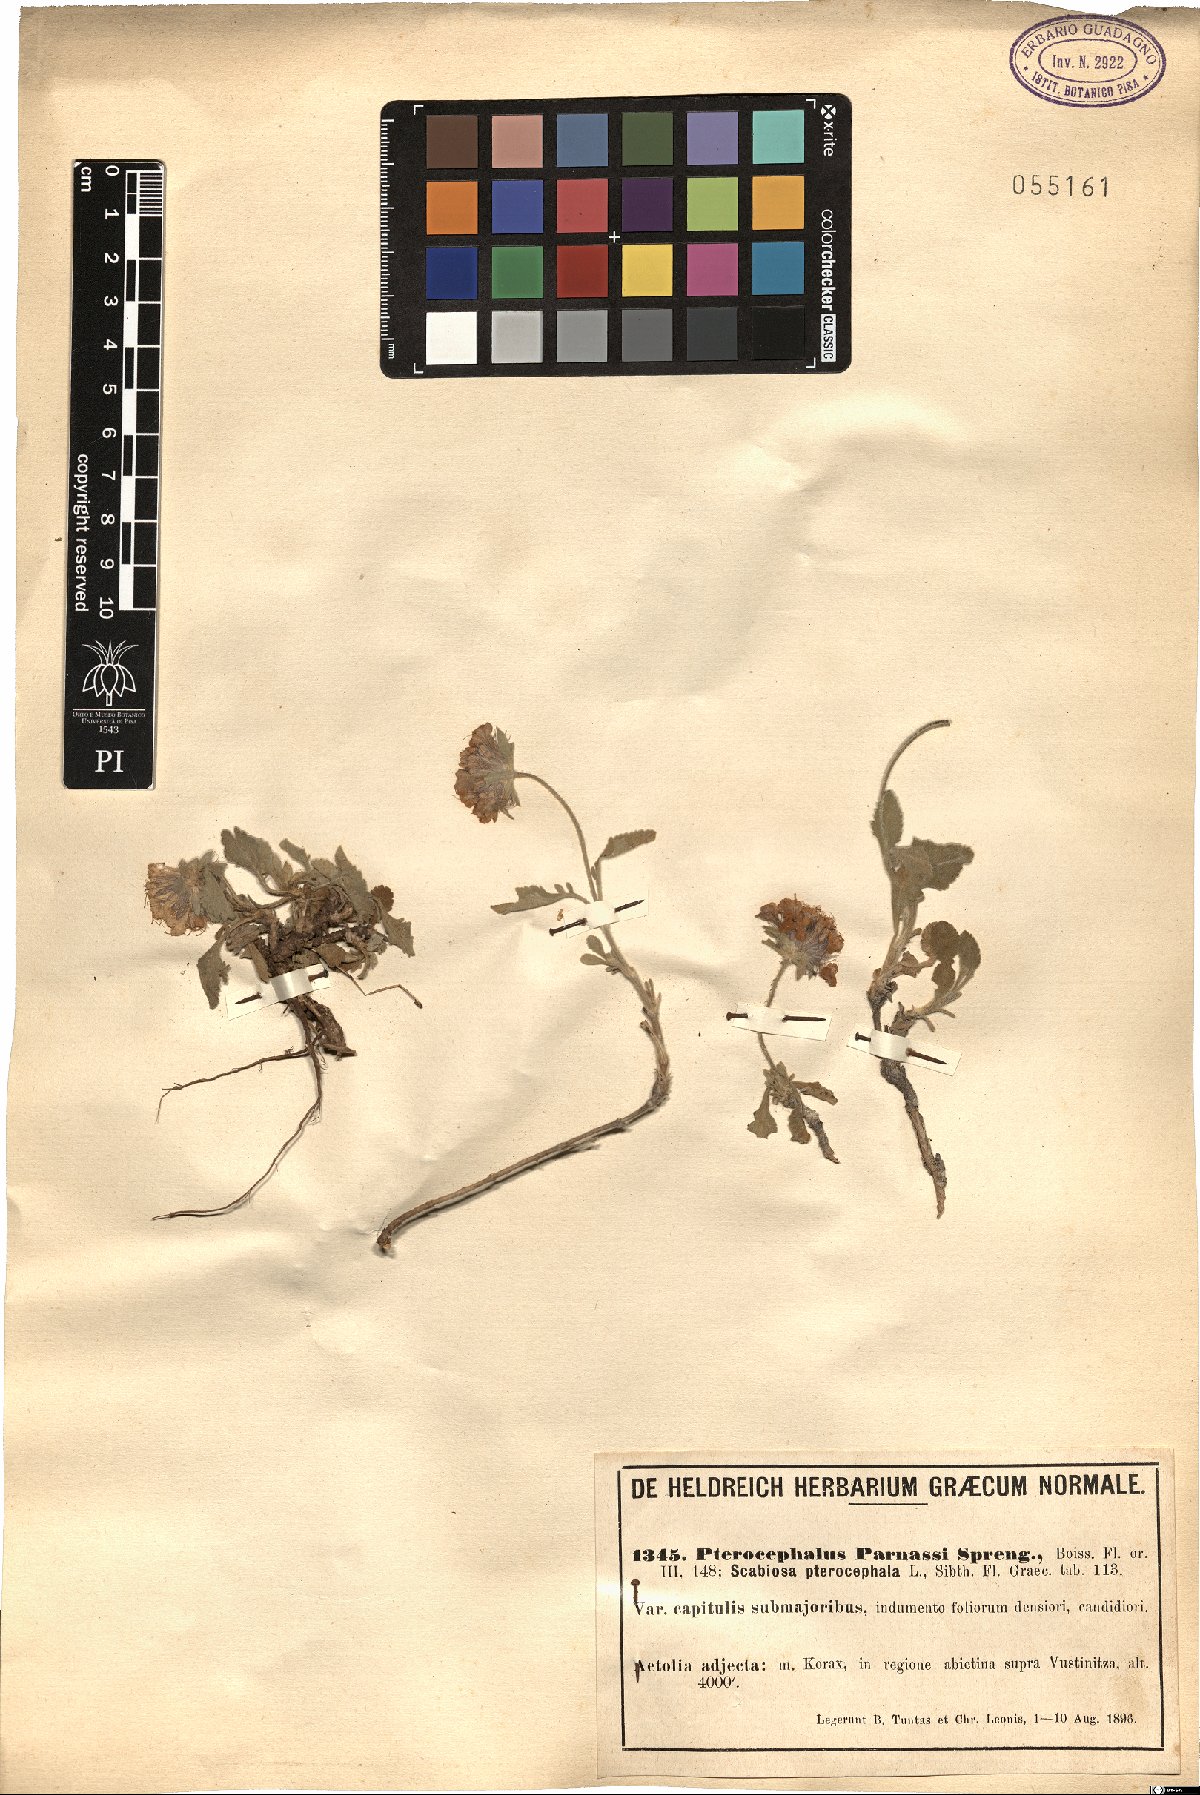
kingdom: Plantae
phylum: Tracheophyta
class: Magnoliopsida
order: Dipsacales
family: Caprifoliaceae
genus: Pterocephalus
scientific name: Pterocephalus perennis
